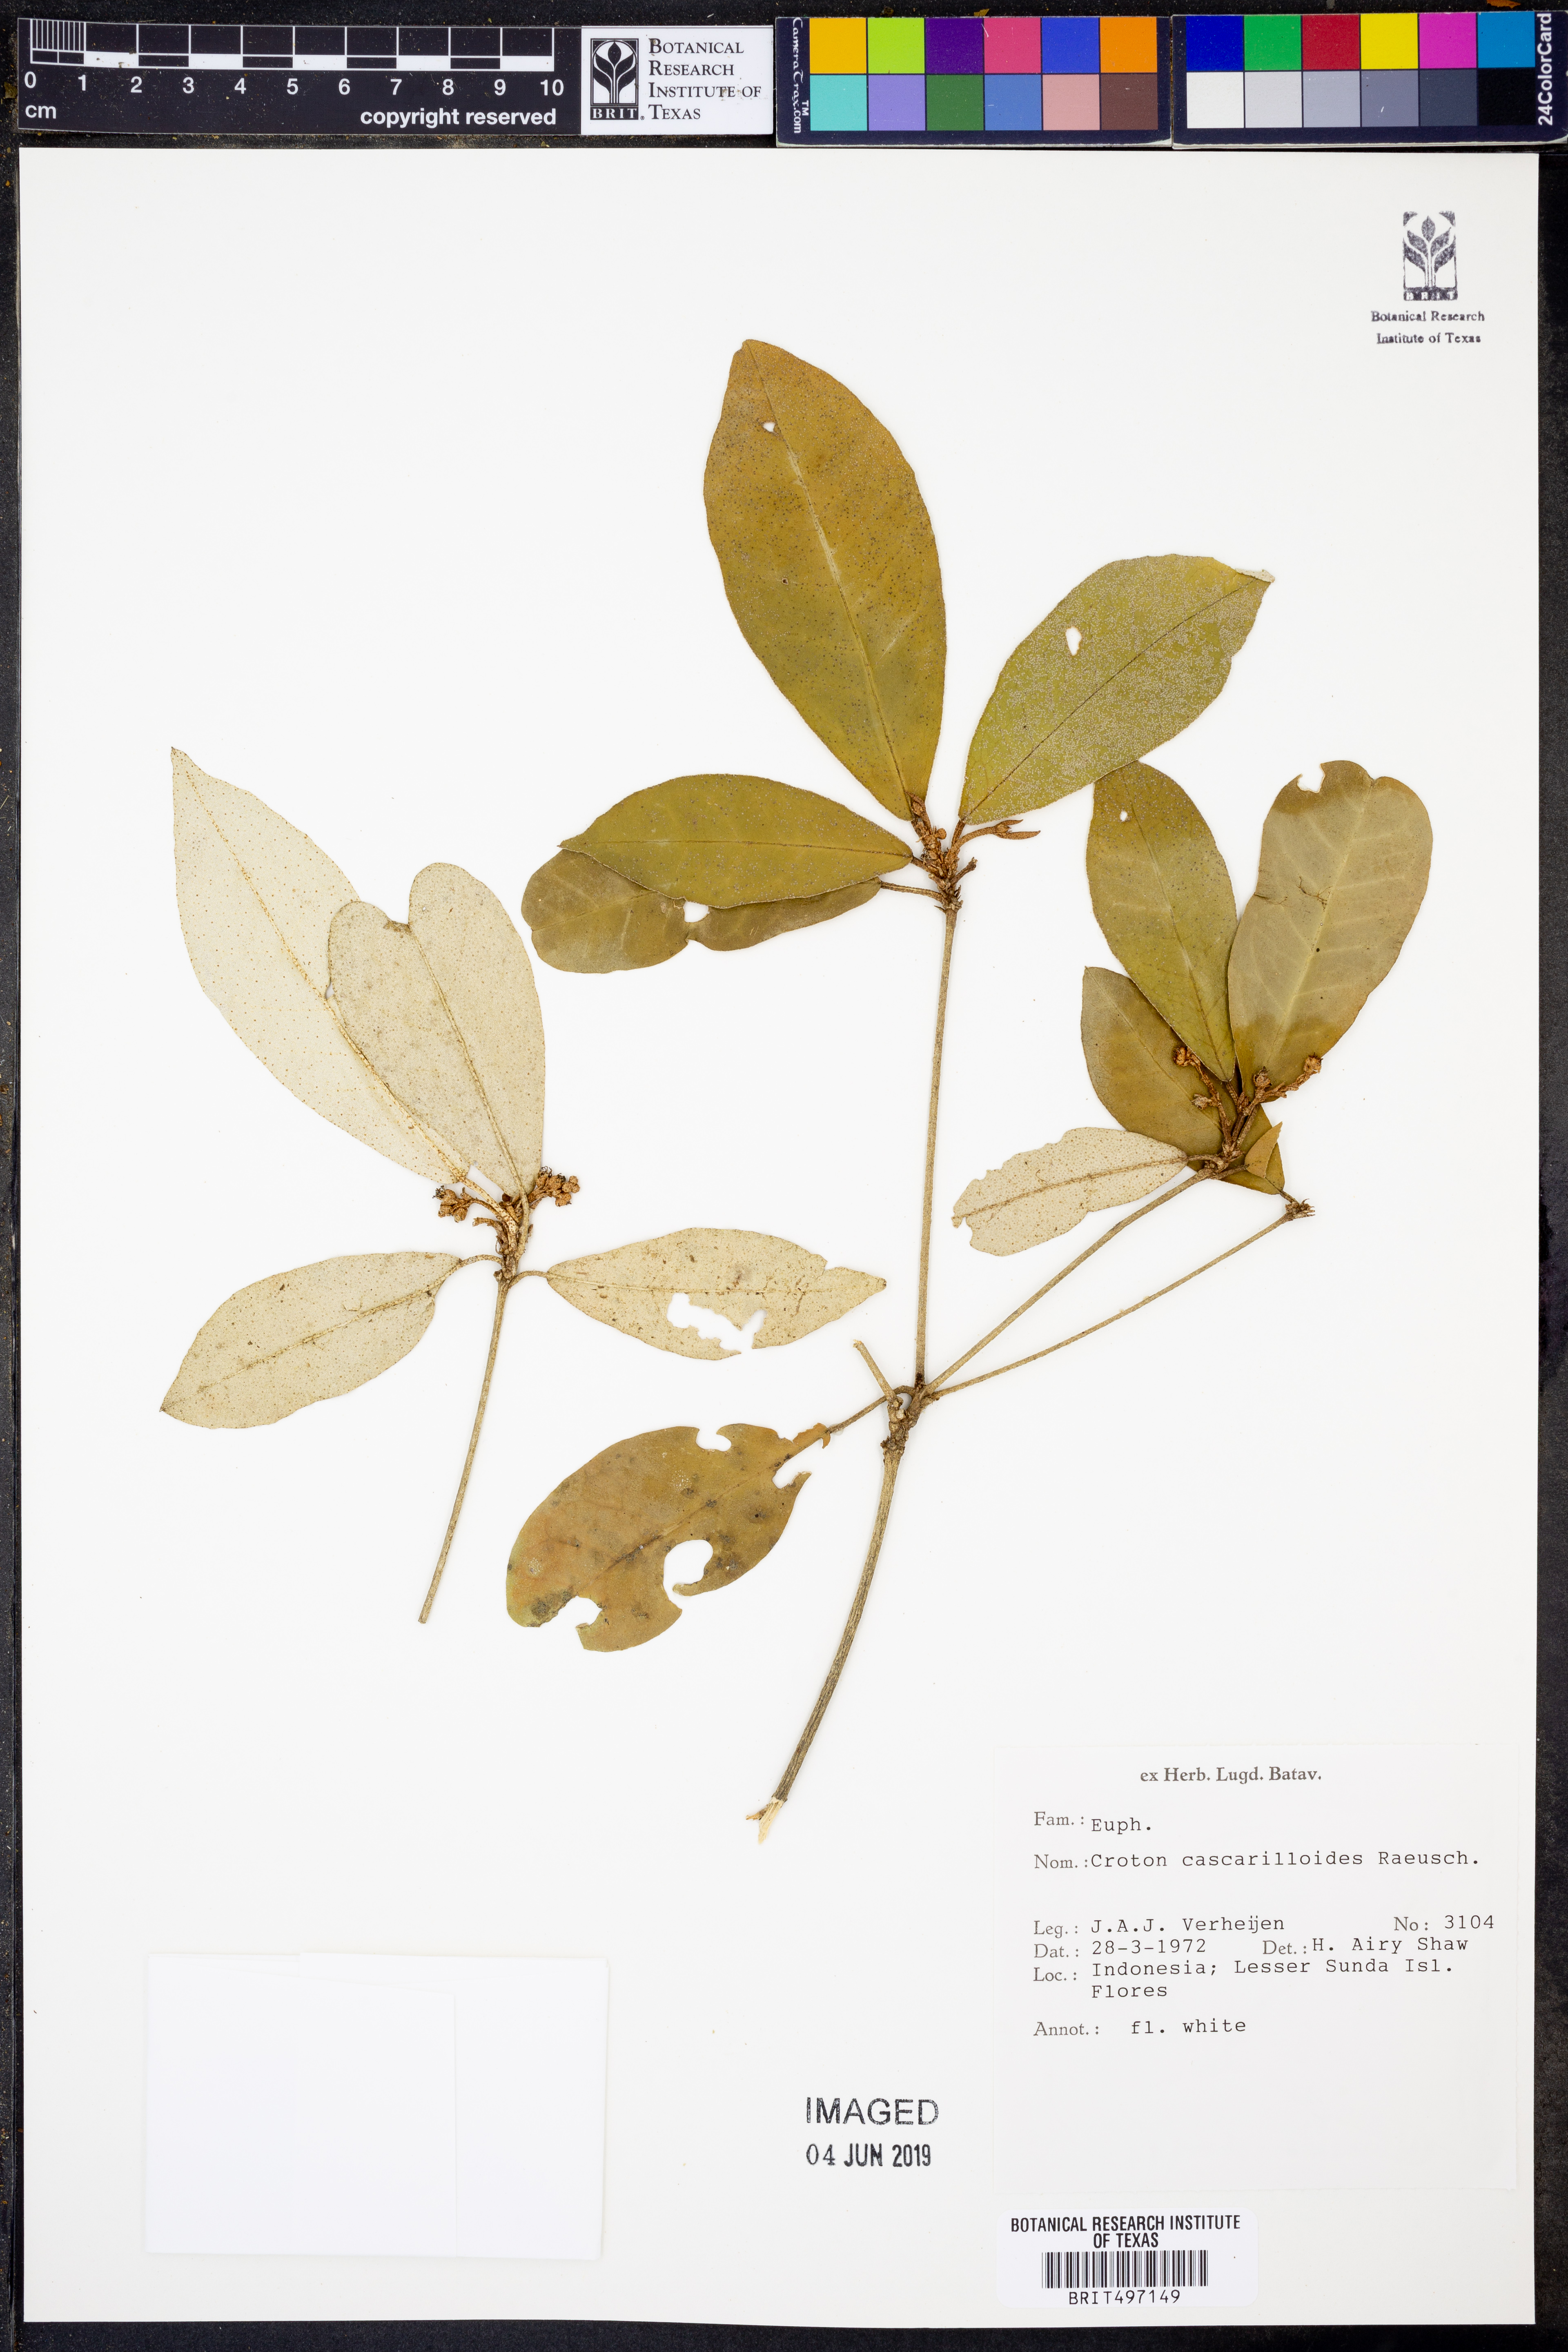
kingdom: Plantae
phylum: Tracheophyta
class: Magnoliopsida
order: Malpighiales
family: Euphorbiaceae
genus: Croton
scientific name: Croton cascarilloides
